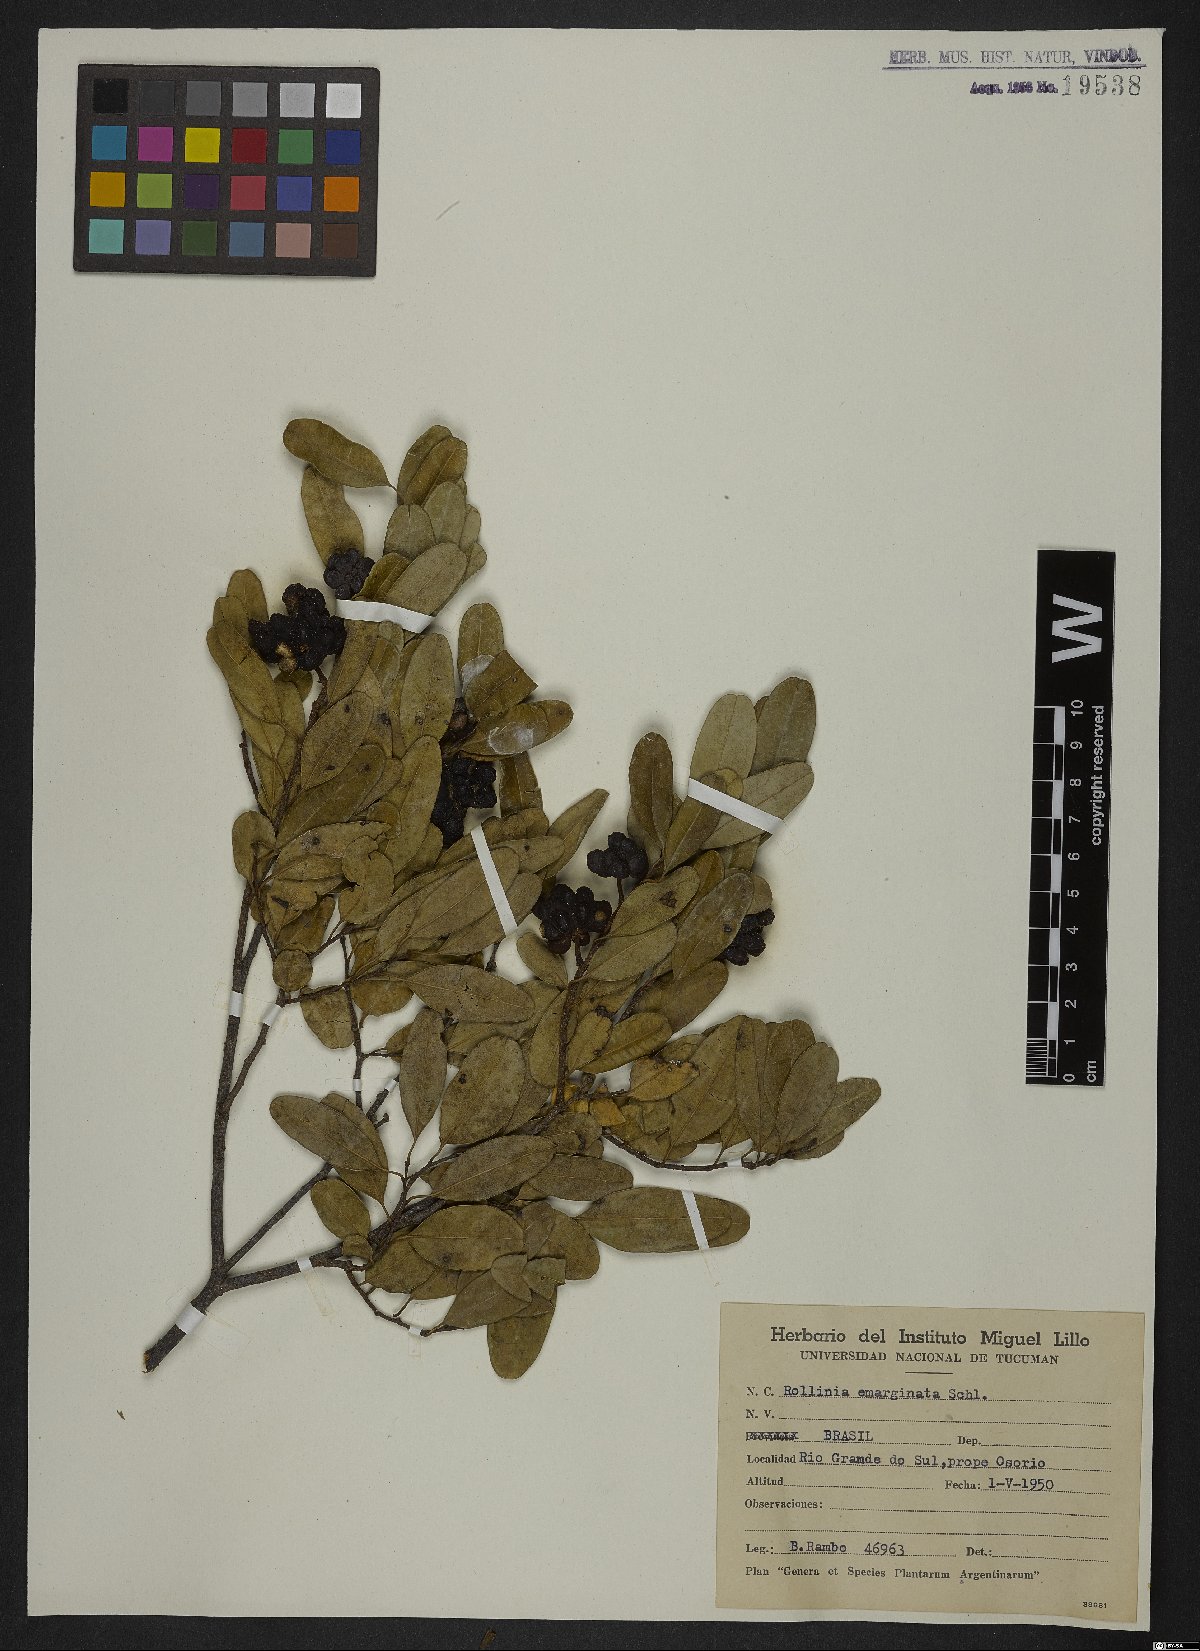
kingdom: Plantae
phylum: Tracheophyta
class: Magnoliopsida
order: Magnoliales
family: Annonaceae
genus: Annona
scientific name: Annona emarginata
